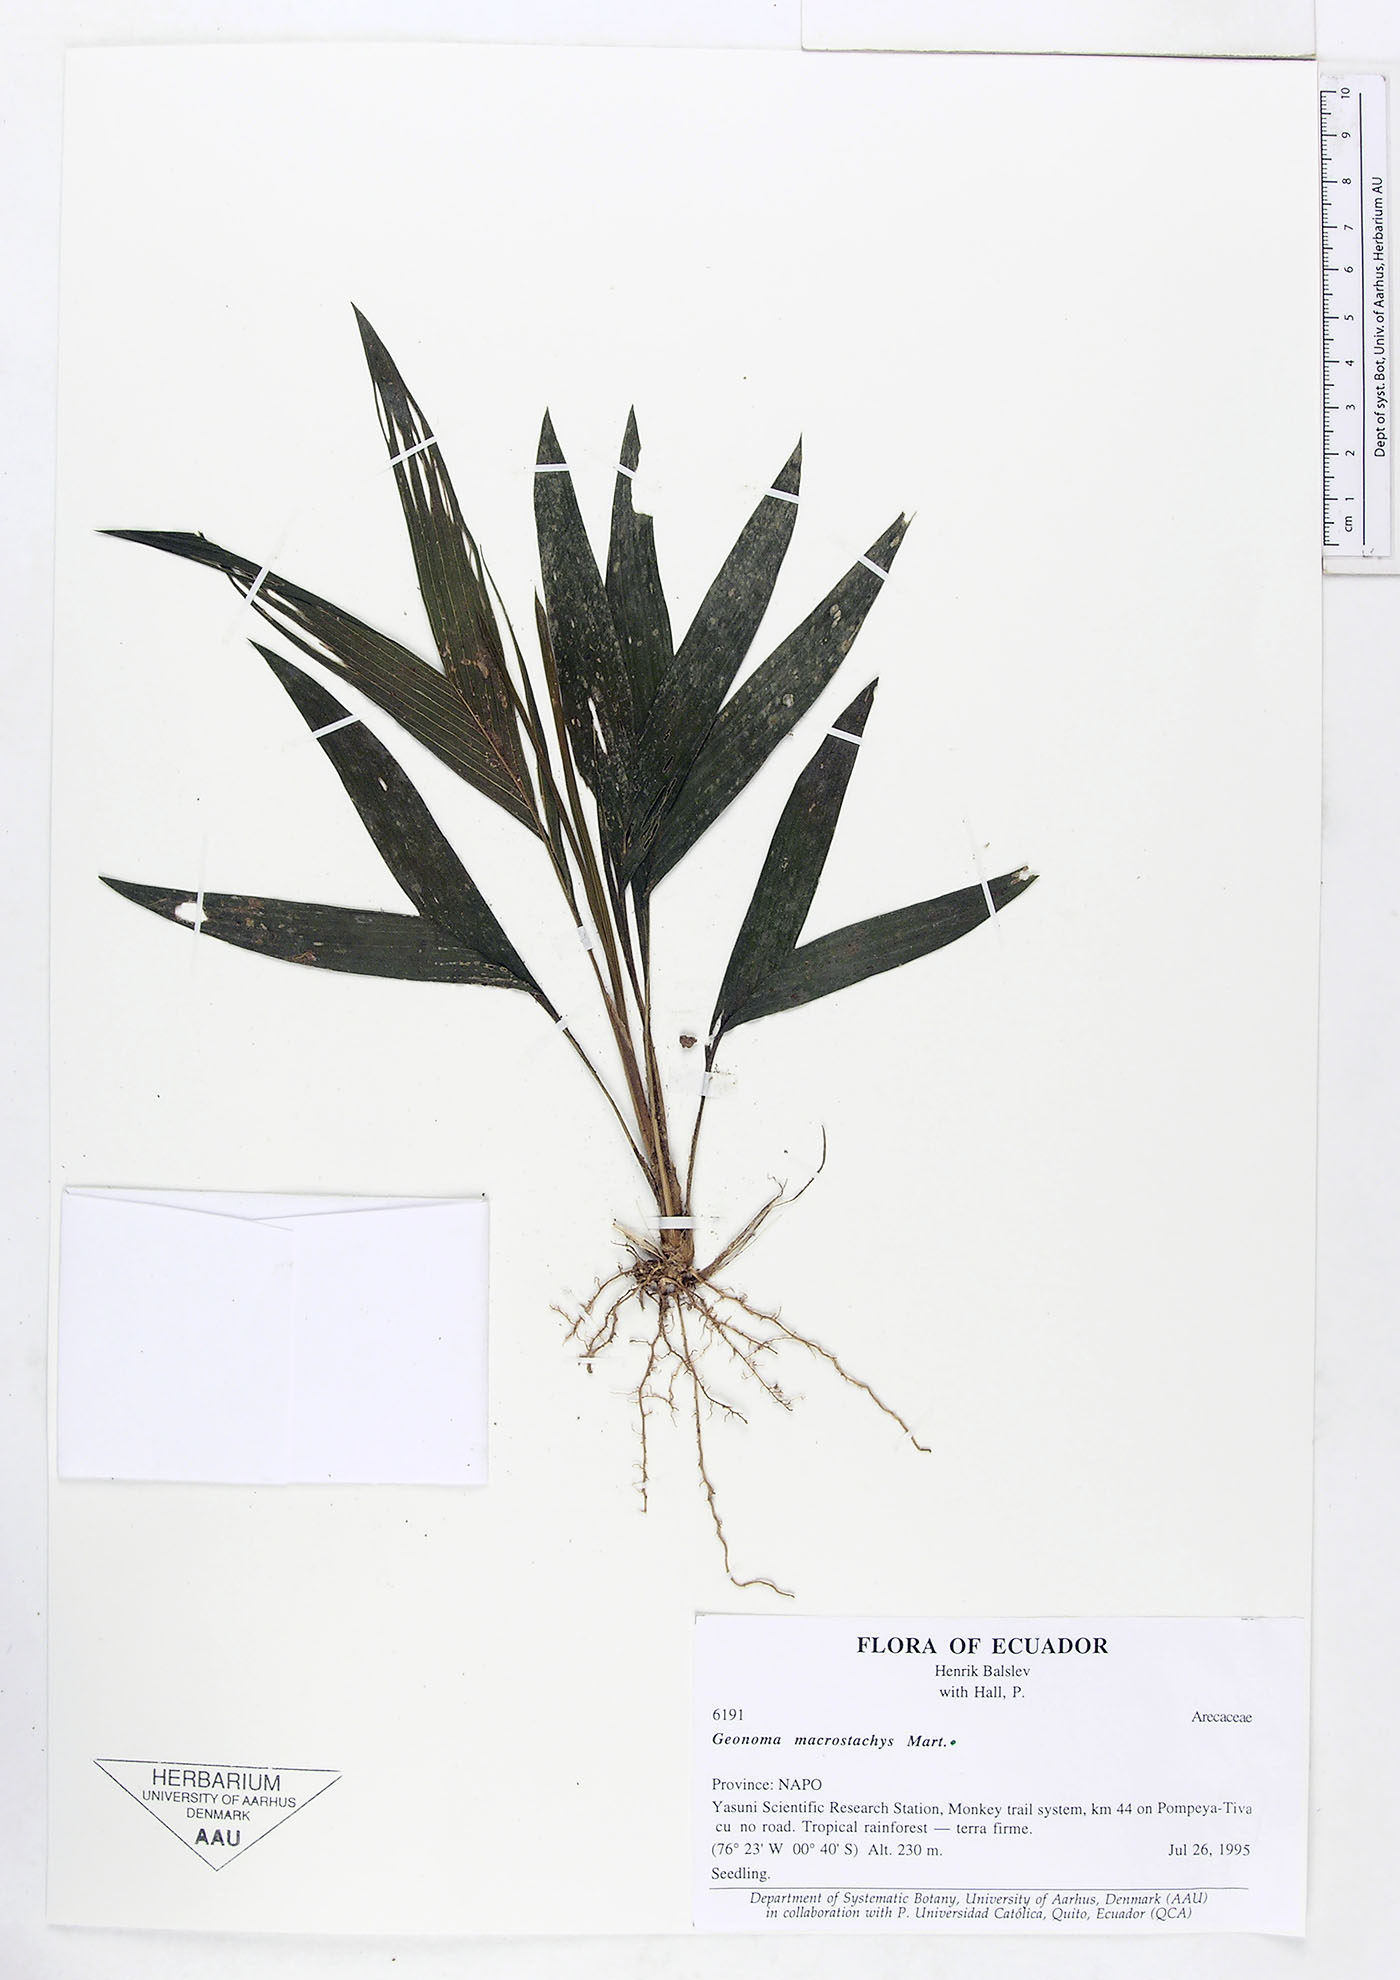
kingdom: Plantae
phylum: Tracheophyta
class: Liliopsida
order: Arecales
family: Arecaceae
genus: Geonoma
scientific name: Geonoma macrostachys
